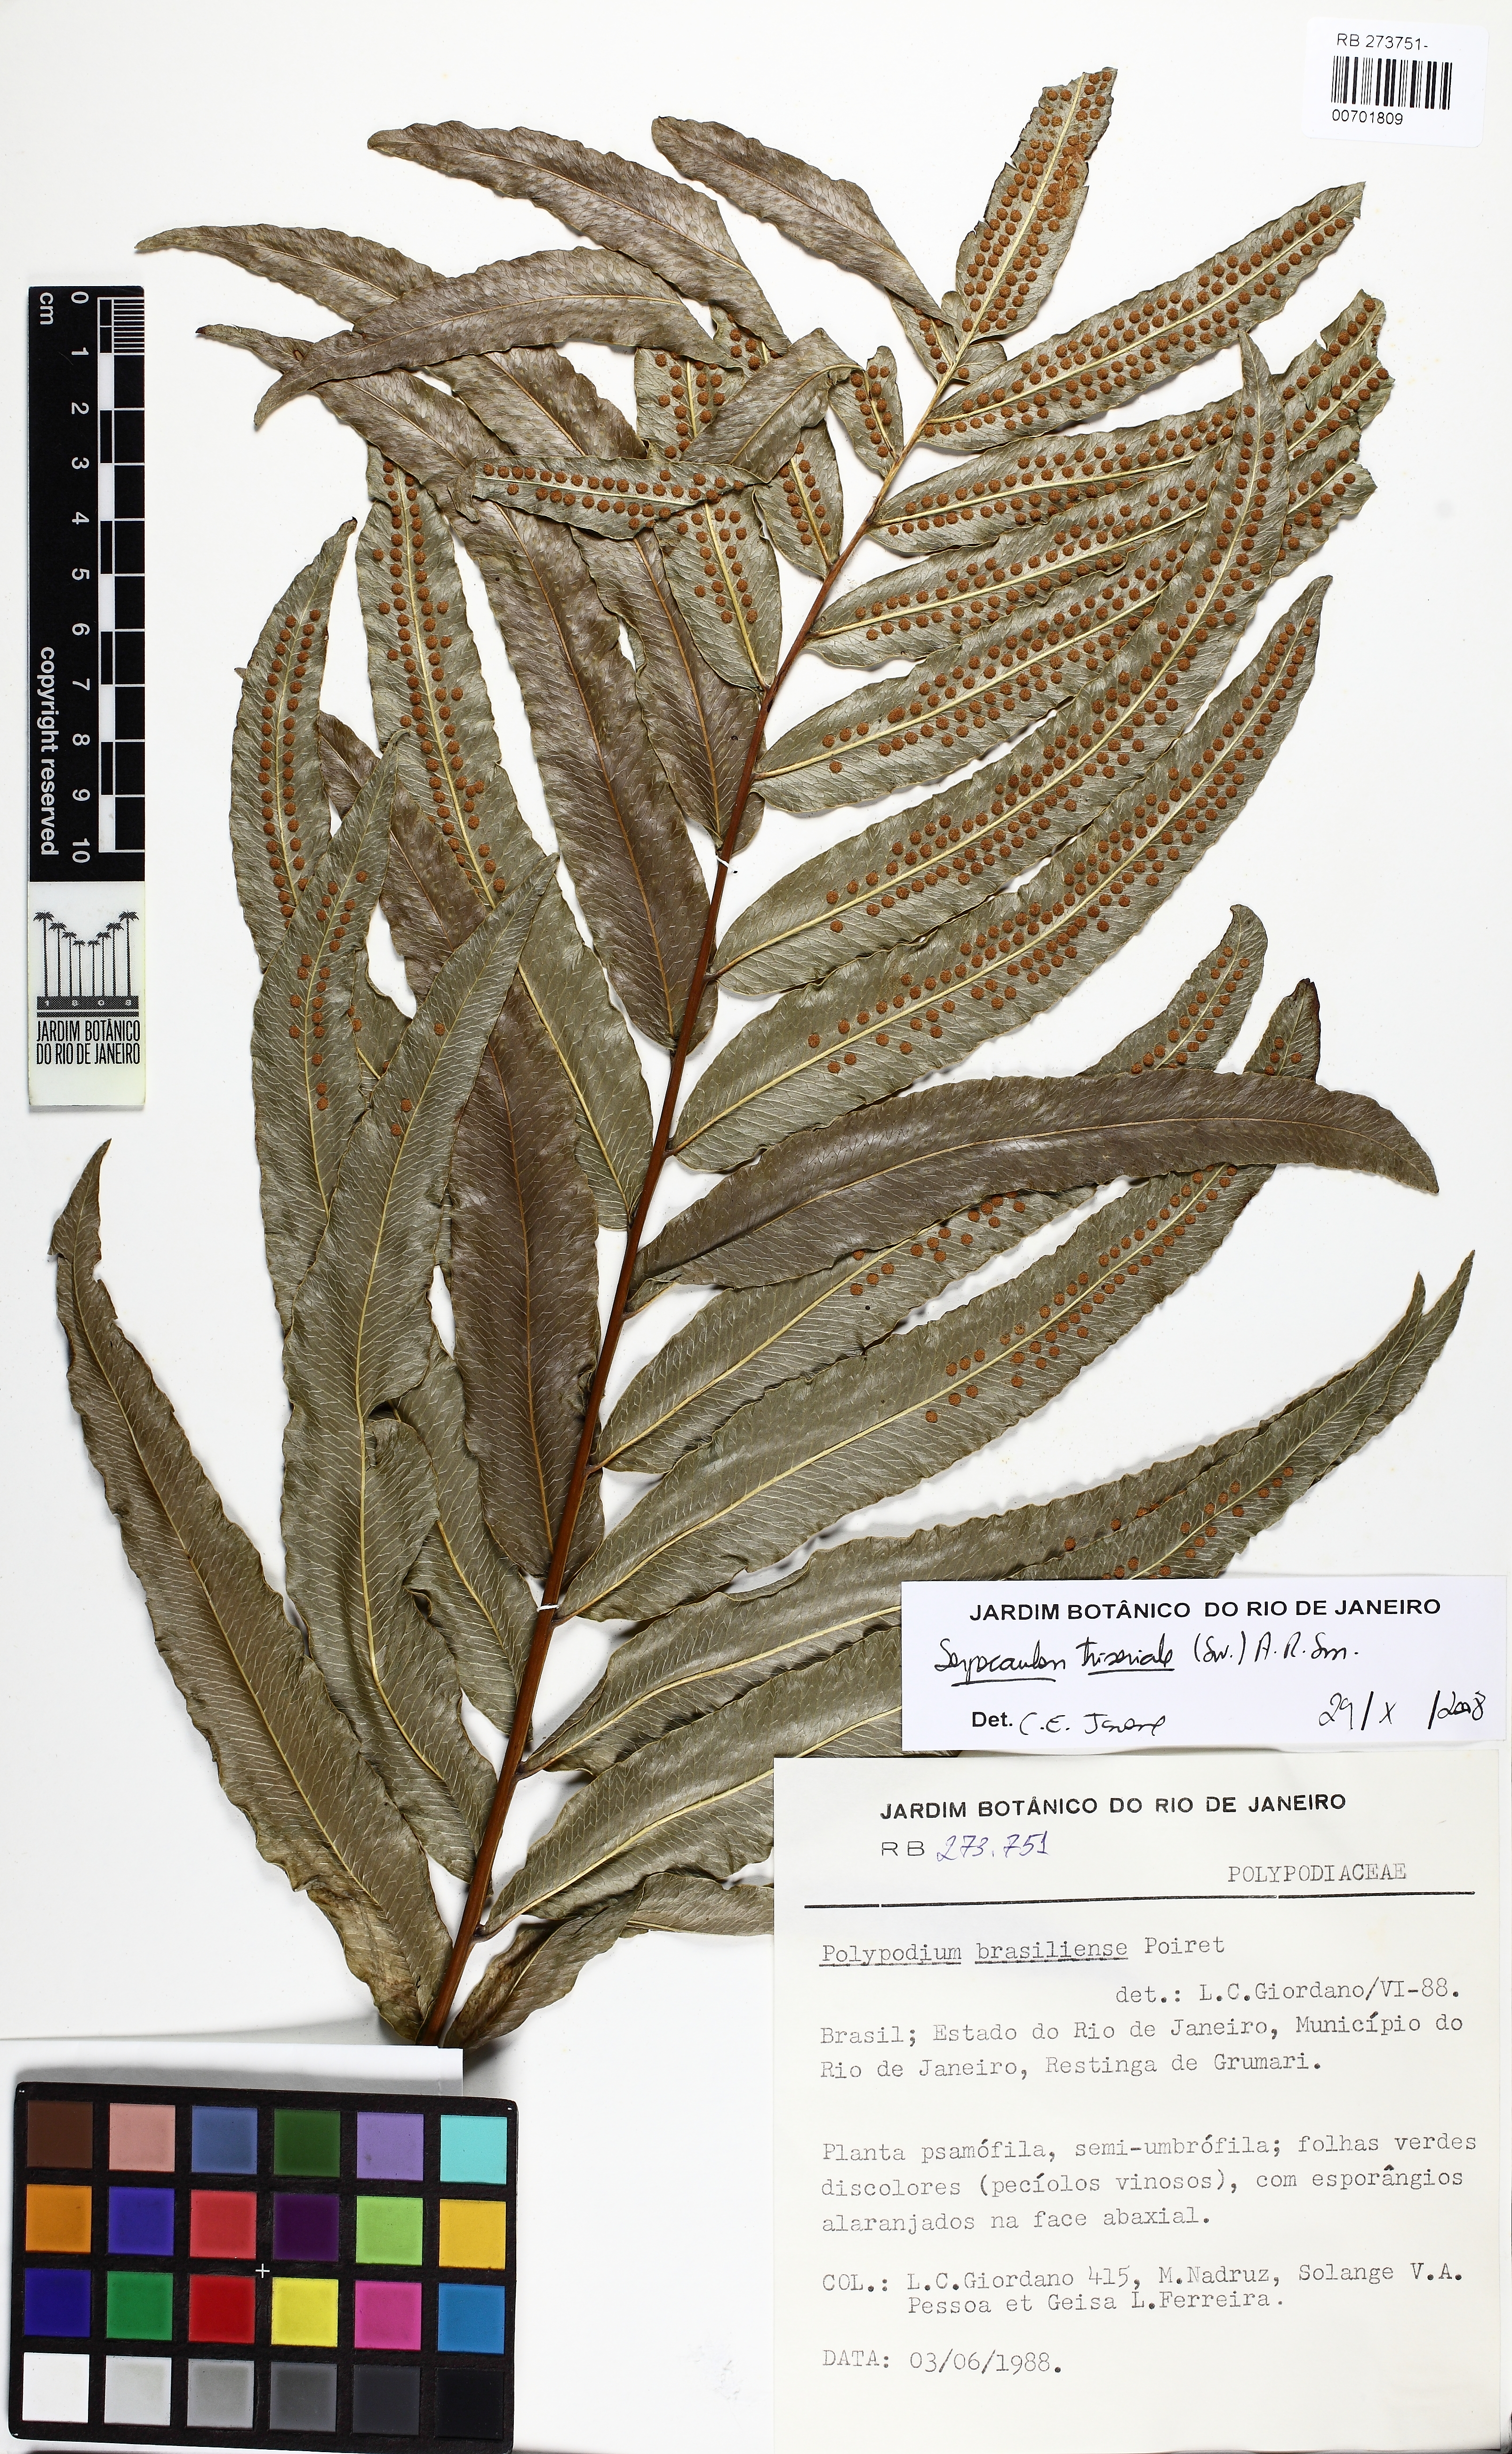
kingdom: Plantae
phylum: Tracheophyta
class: Polypodiopsida
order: Polypodiales
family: Polypodiaceae
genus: Serpocaulon
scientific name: Serpocaulon triseriale
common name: Angle-vein fern
